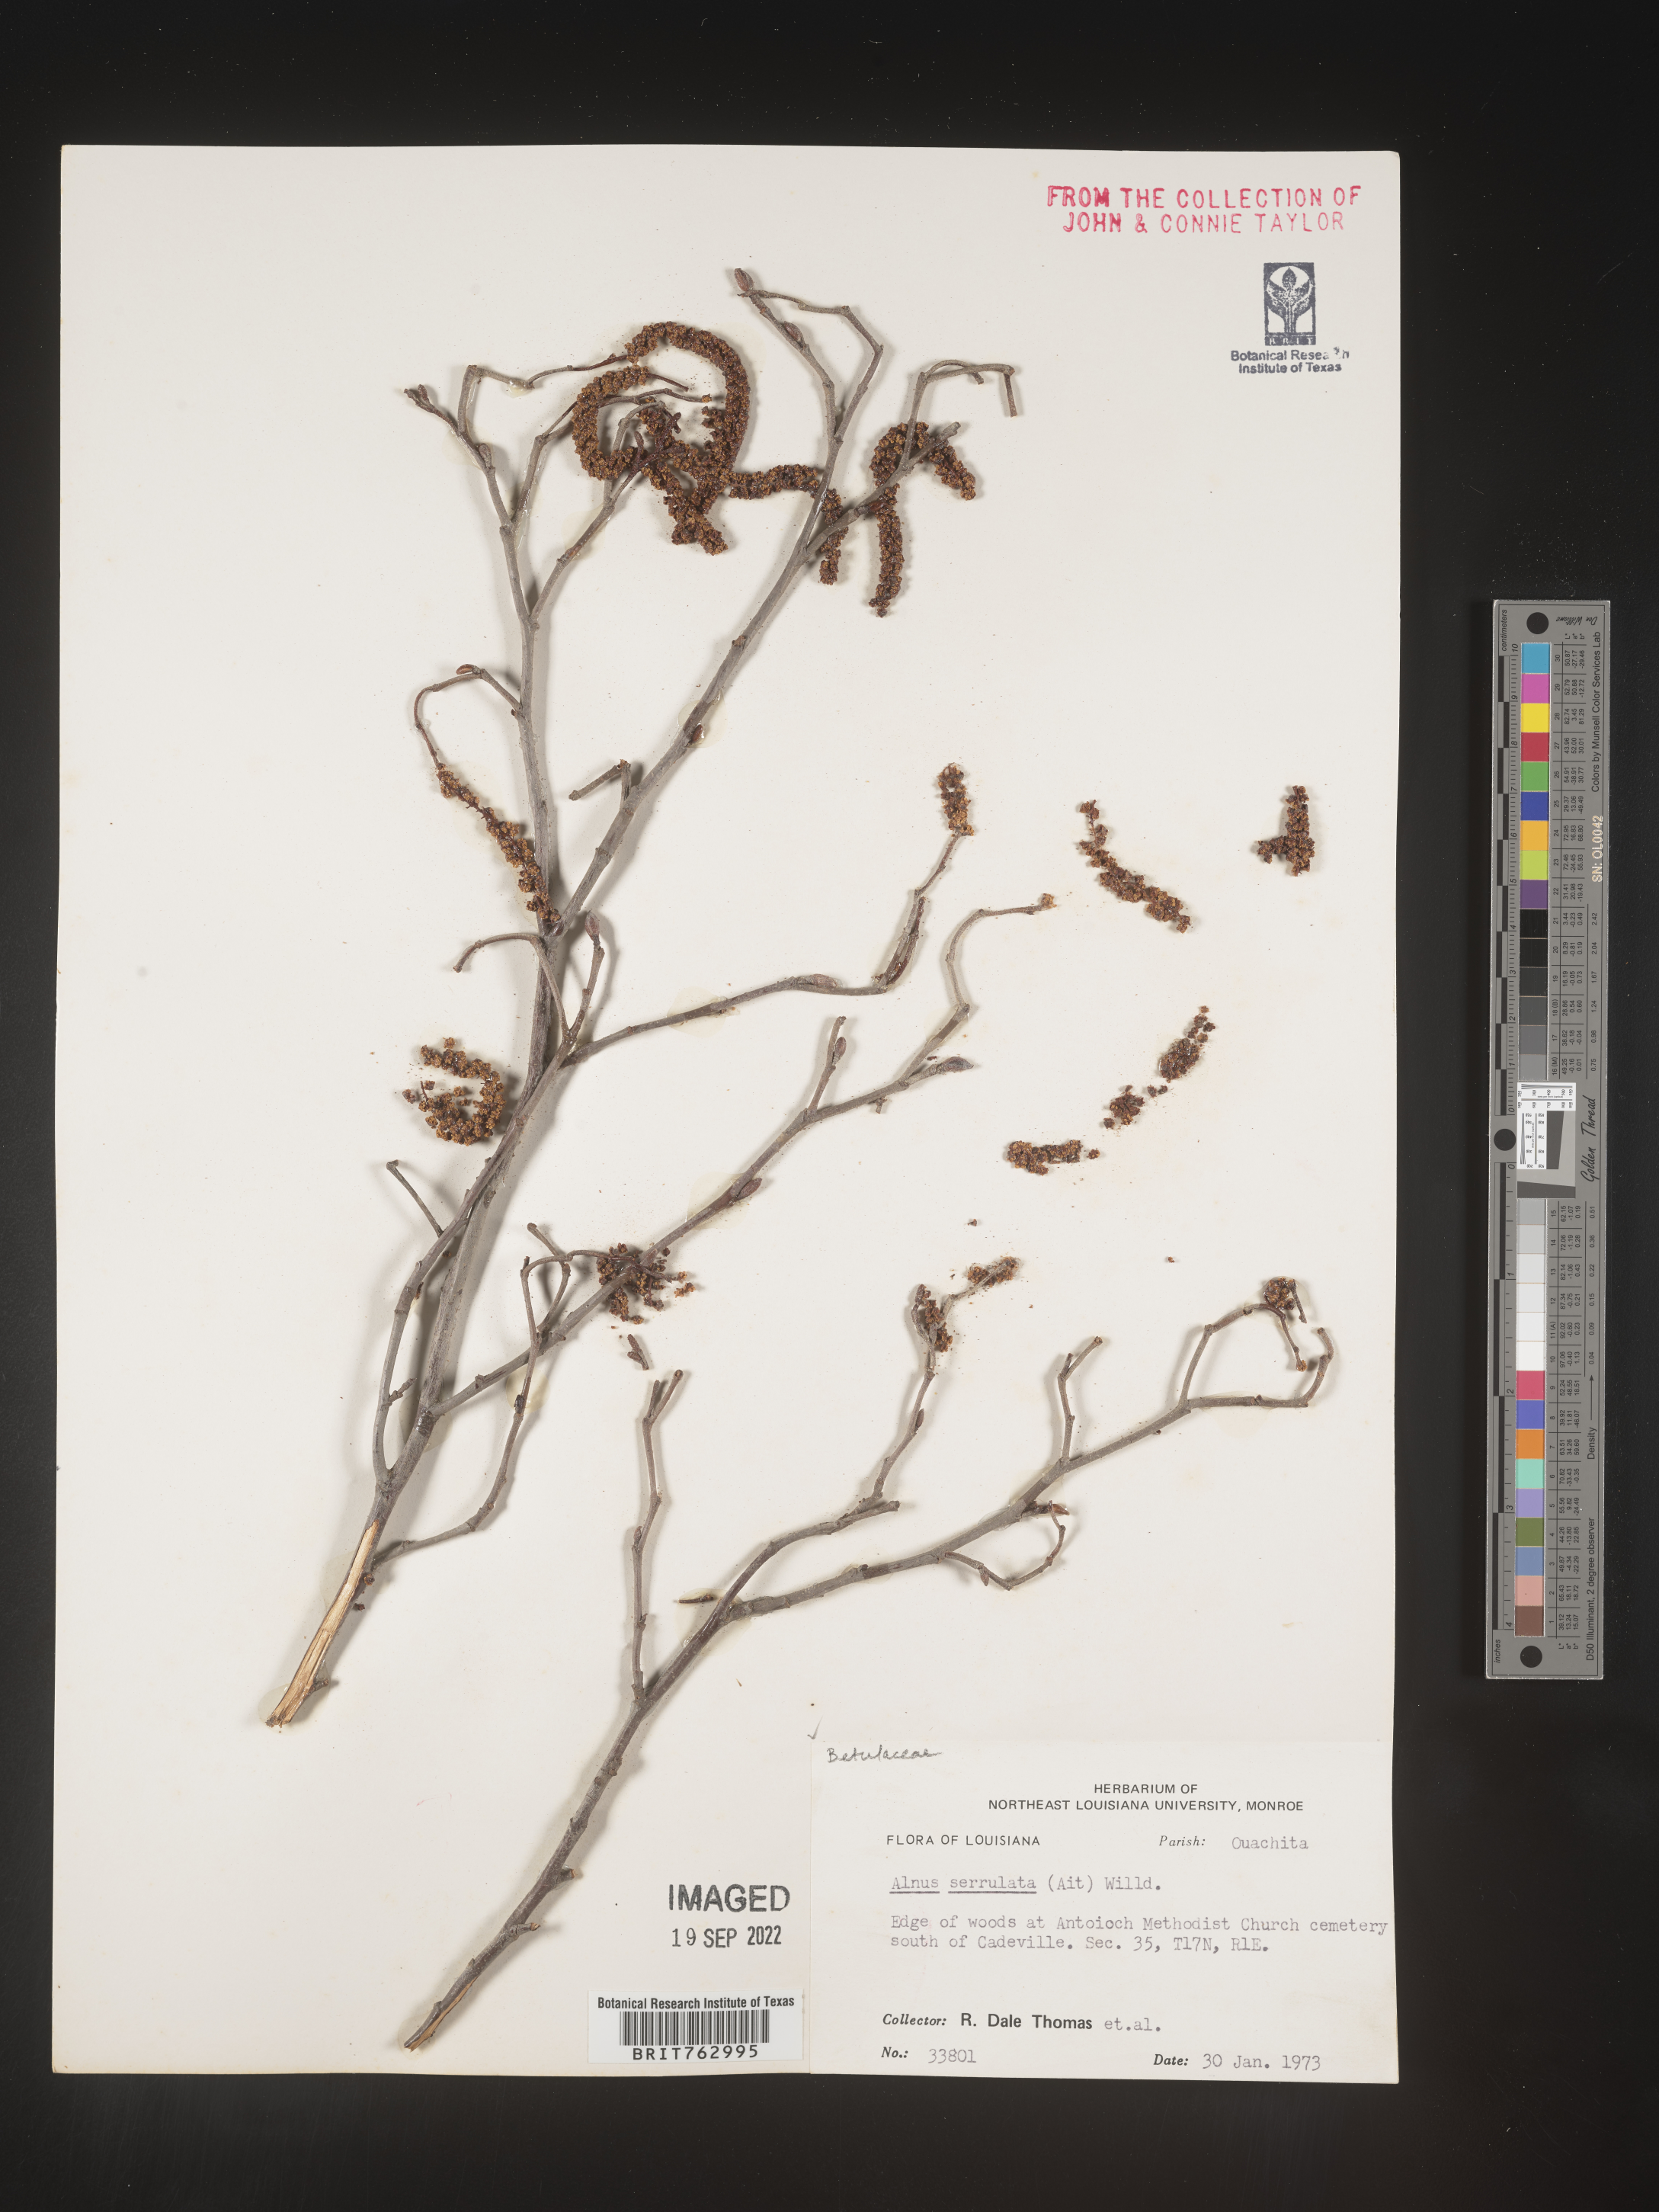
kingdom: Plantae
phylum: Tracheophyta
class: Magnoliopsida
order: Fagales
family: Betulaceae
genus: Alnus
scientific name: Alnus serrulata
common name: Hazel alder
